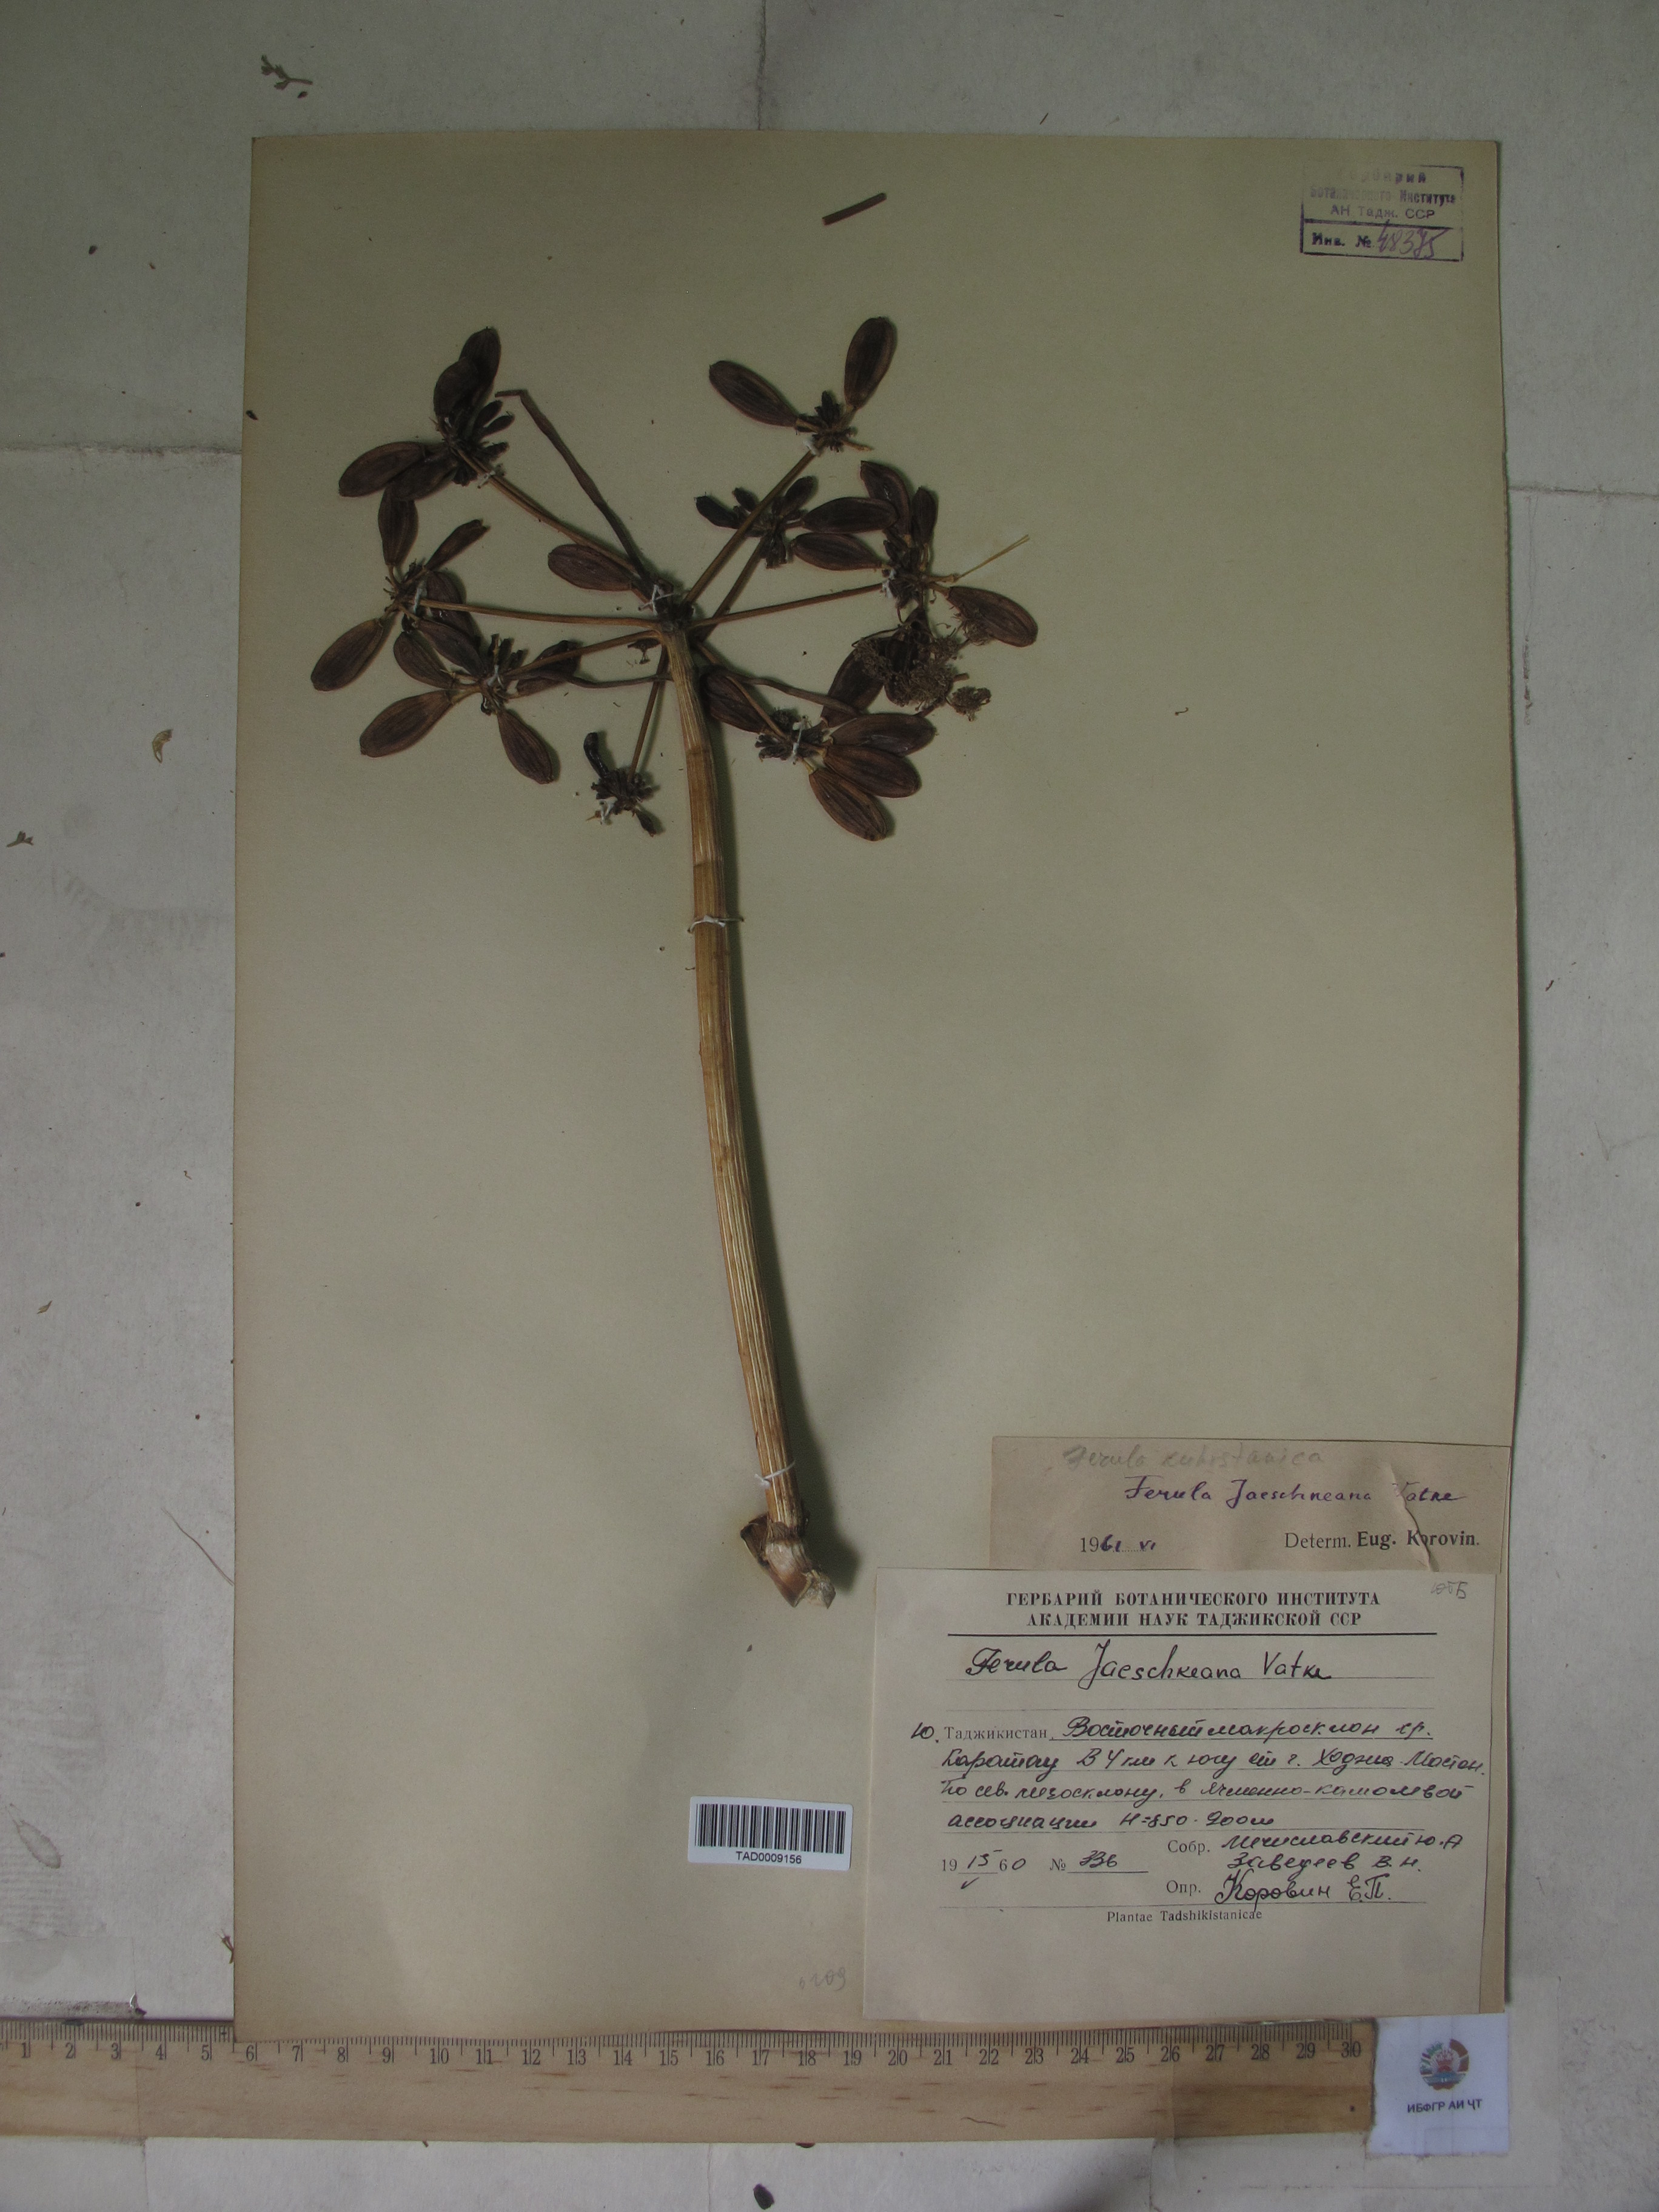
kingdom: Plantae
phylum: Tracheophyta
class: Magnoliopsida
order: Apiales
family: Apiaceae
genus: Ferula
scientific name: Ferula jaeschkeana
